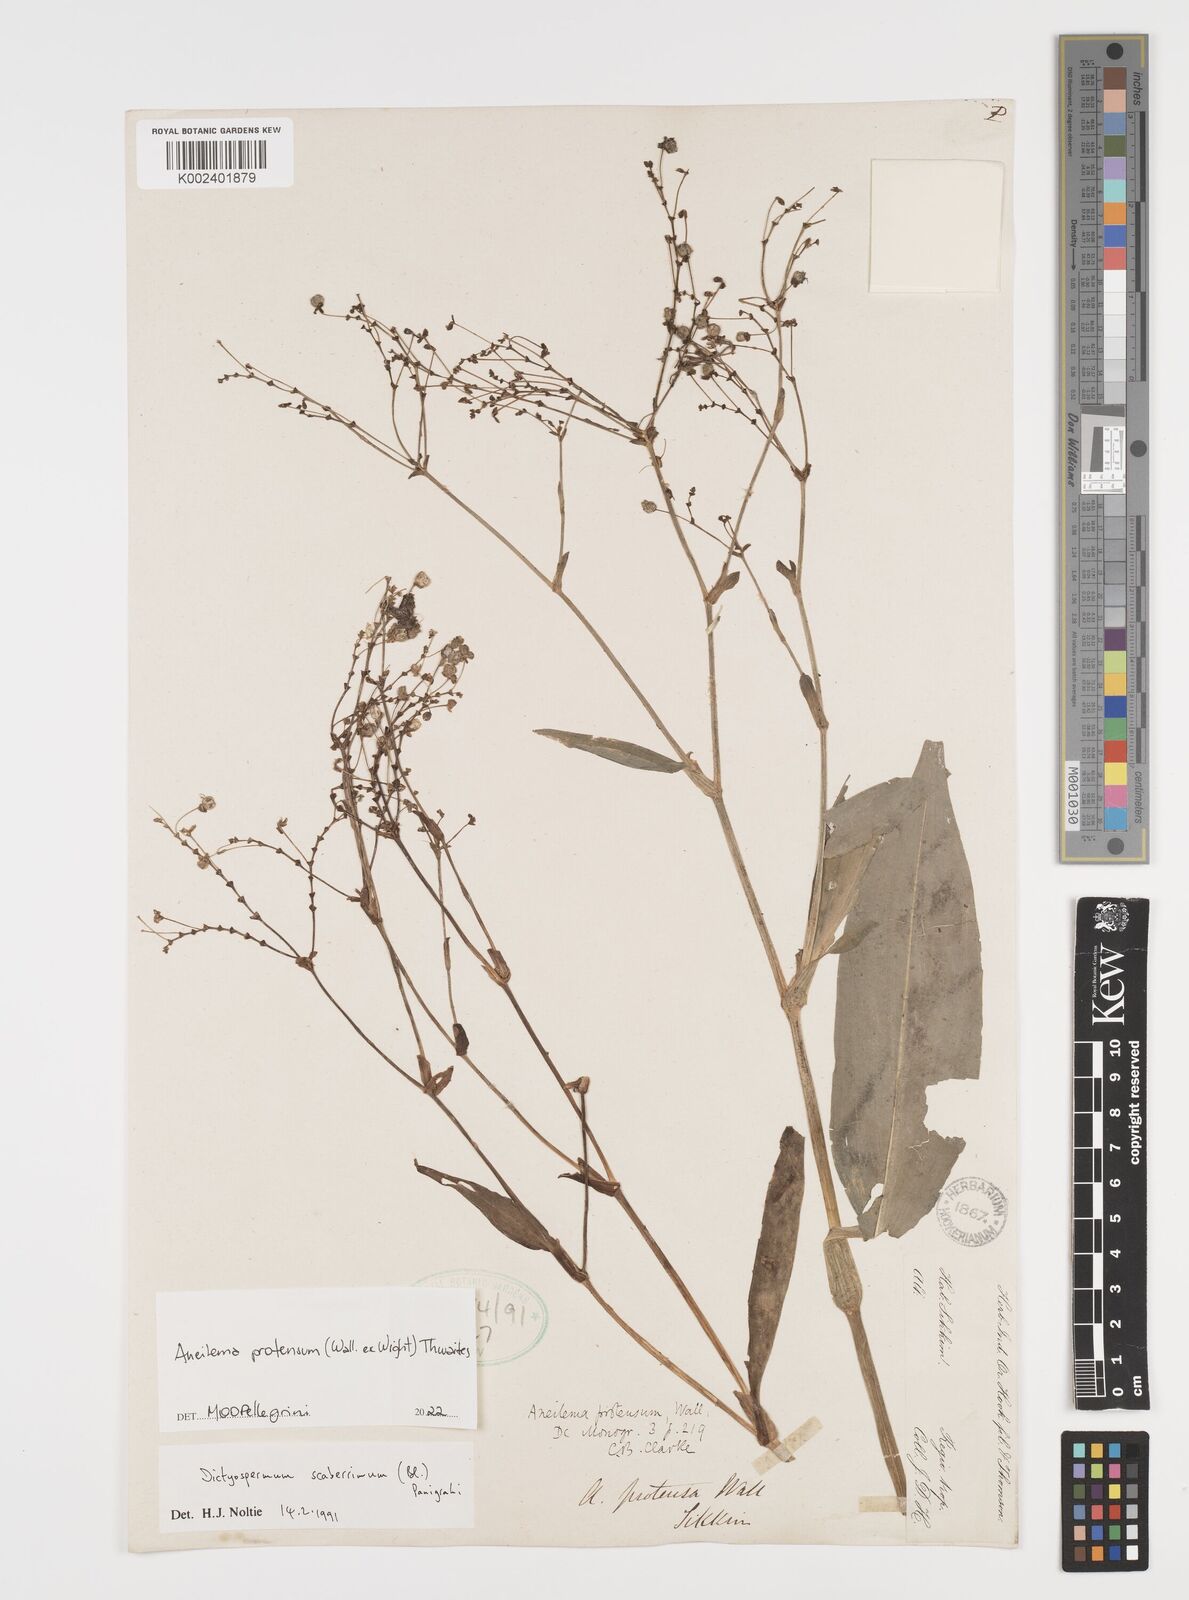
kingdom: Plantae
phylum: Tracheophyta
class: Liliopsida
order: Commelinales
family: Commelinaceae
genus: Rhopalephora
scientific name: Rhopalephora scaberrima
